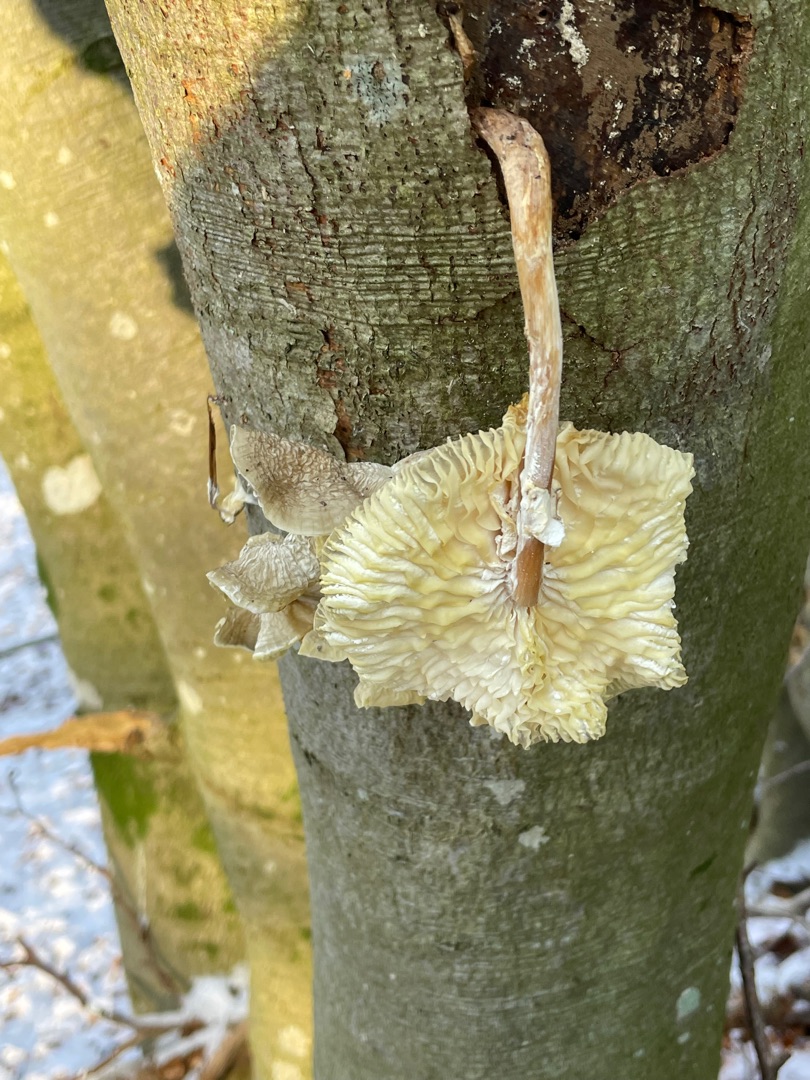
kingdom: Fungi
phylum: Basidiomycota
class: Agaricomycetes
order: Agaricales
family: Physalacriaceae
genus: Mucidula
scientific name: Mucidula mucida
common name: Porcelænshat
